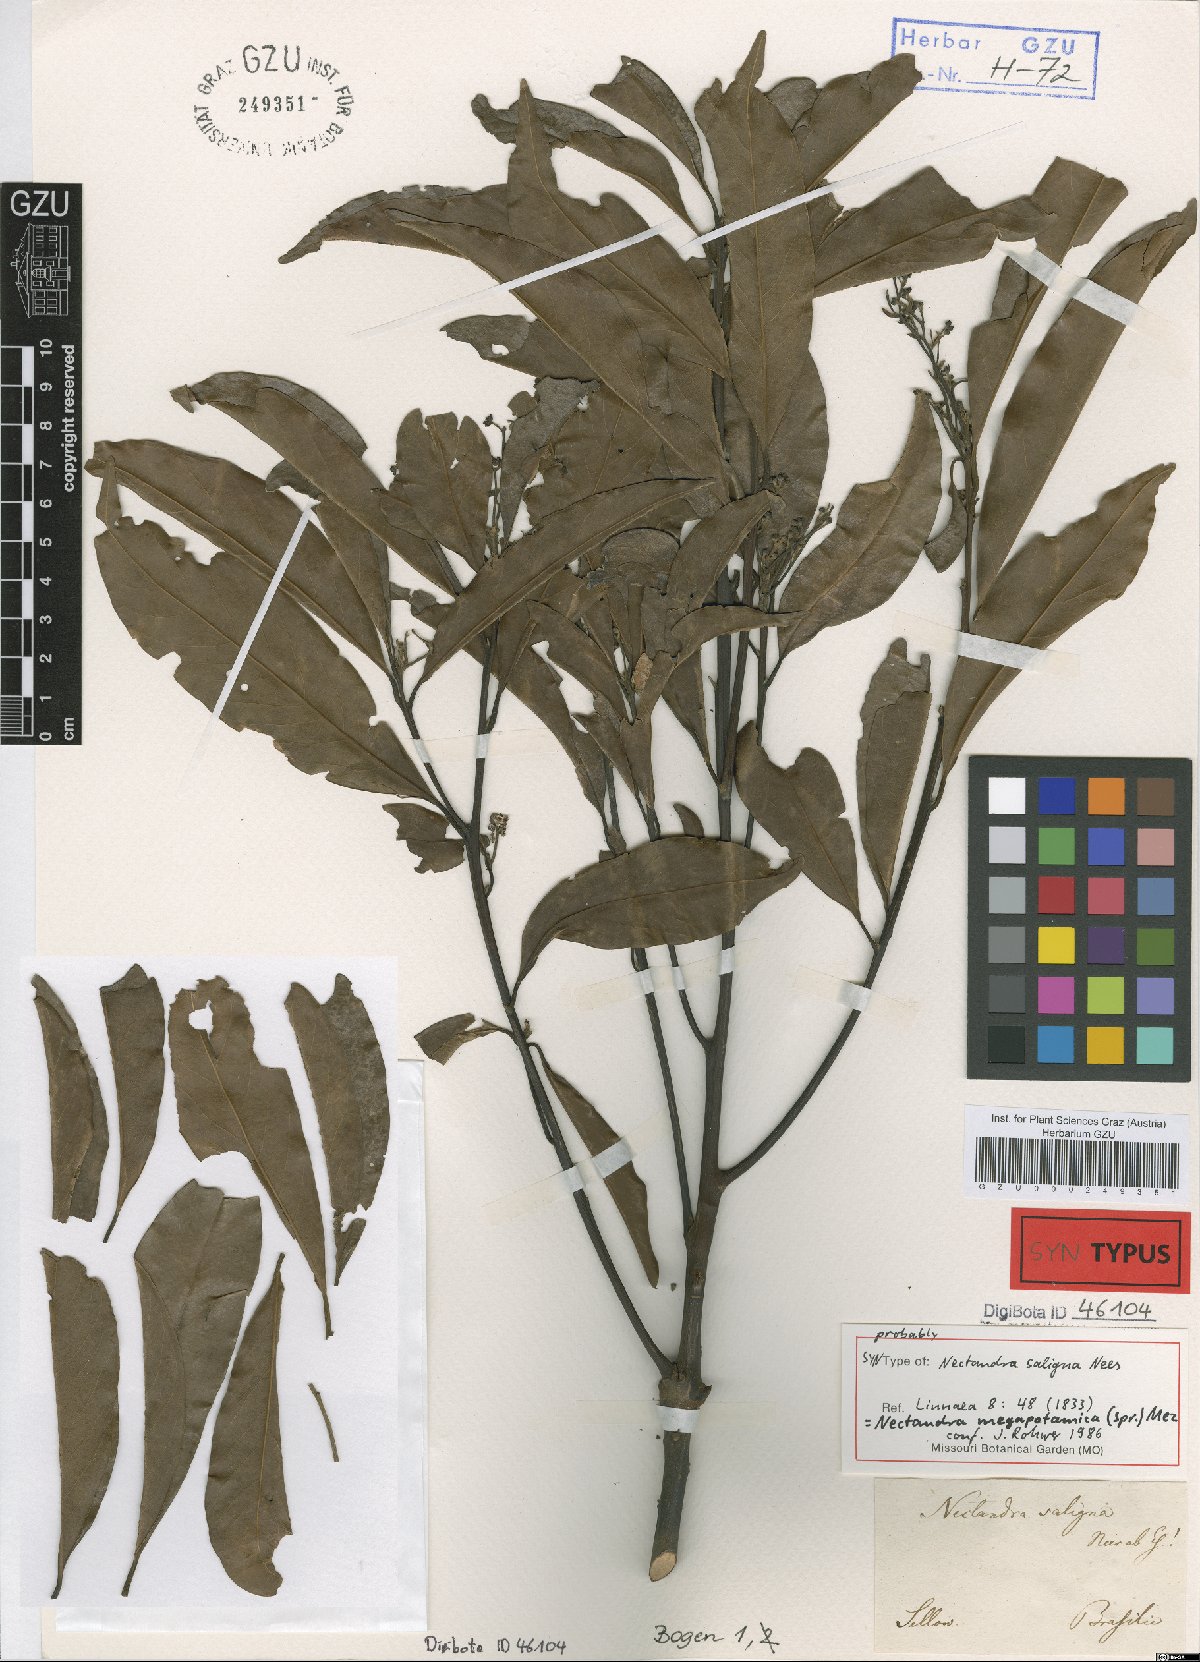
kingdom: Plantae
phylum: Tracheophyta
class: Magnoliopsida
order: Laurales
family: Lauraceae
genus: Nectandra
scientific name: Nectandra megapotamica
